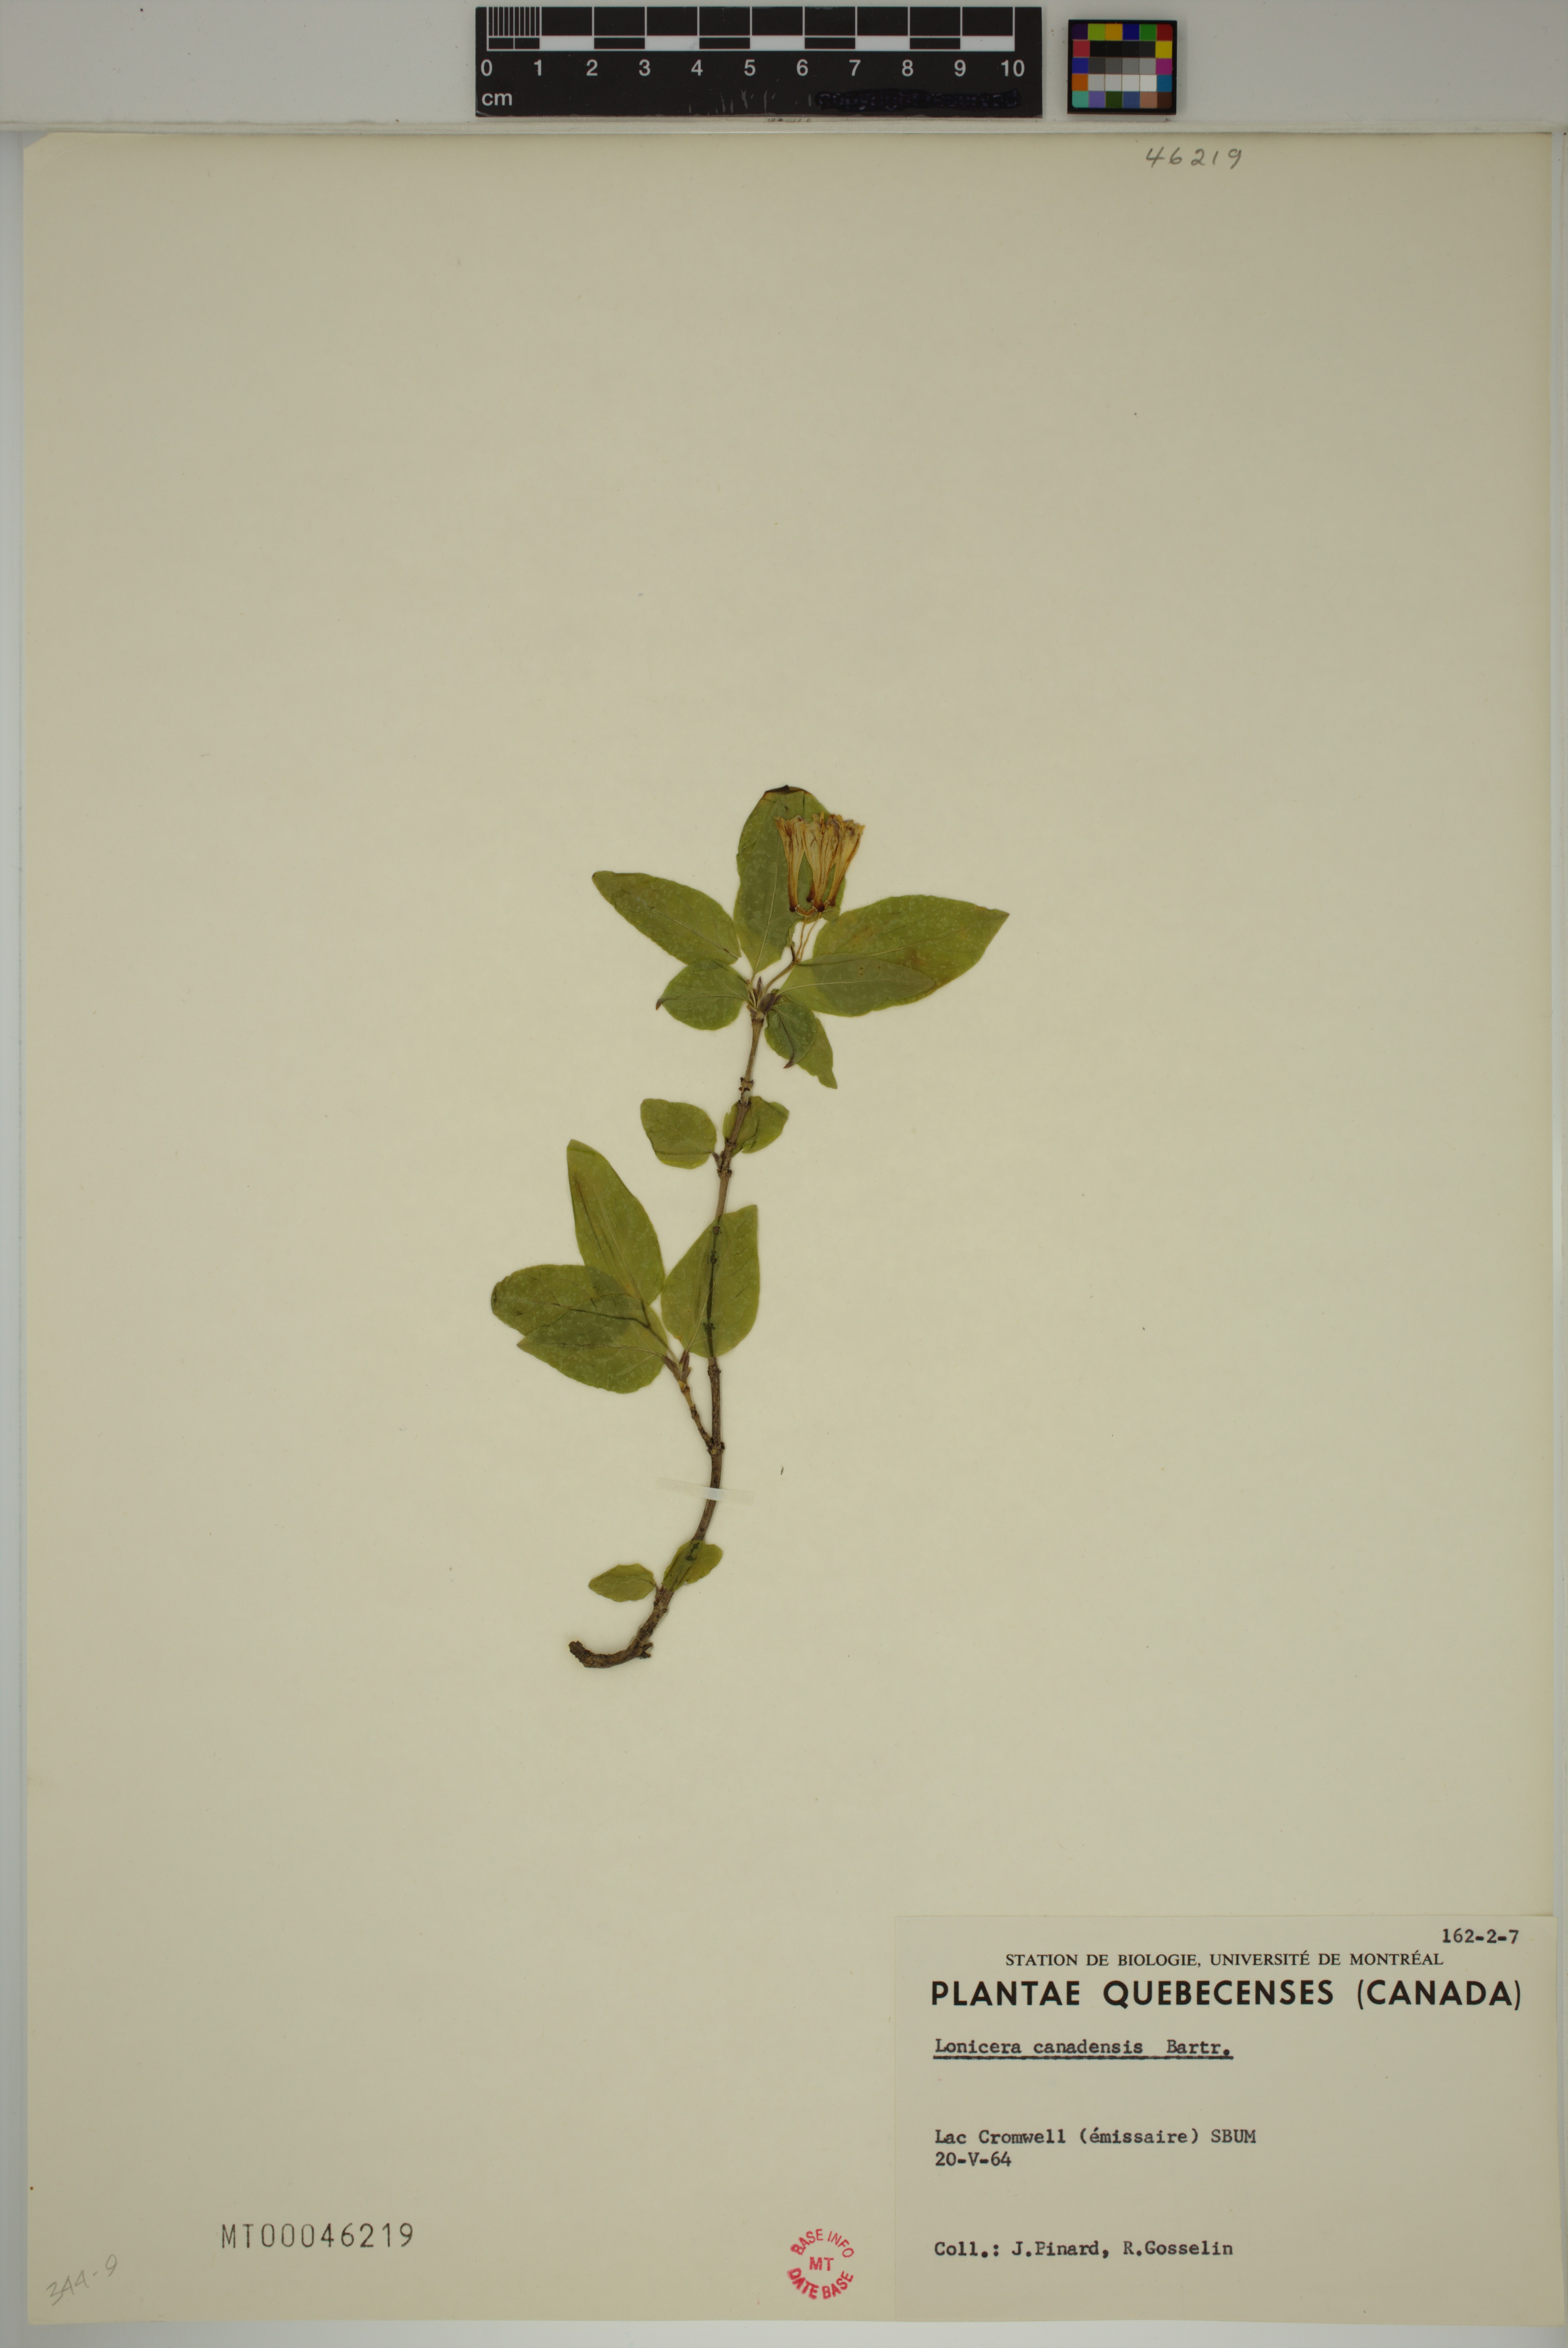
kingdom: Plantae
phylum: Tracheophyta
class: Magnoliopsida
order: Dipsacales
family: Caprifoliaceae
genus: Lonicera
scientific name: Lonicera canadensis
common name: American fly-honeysuckle
